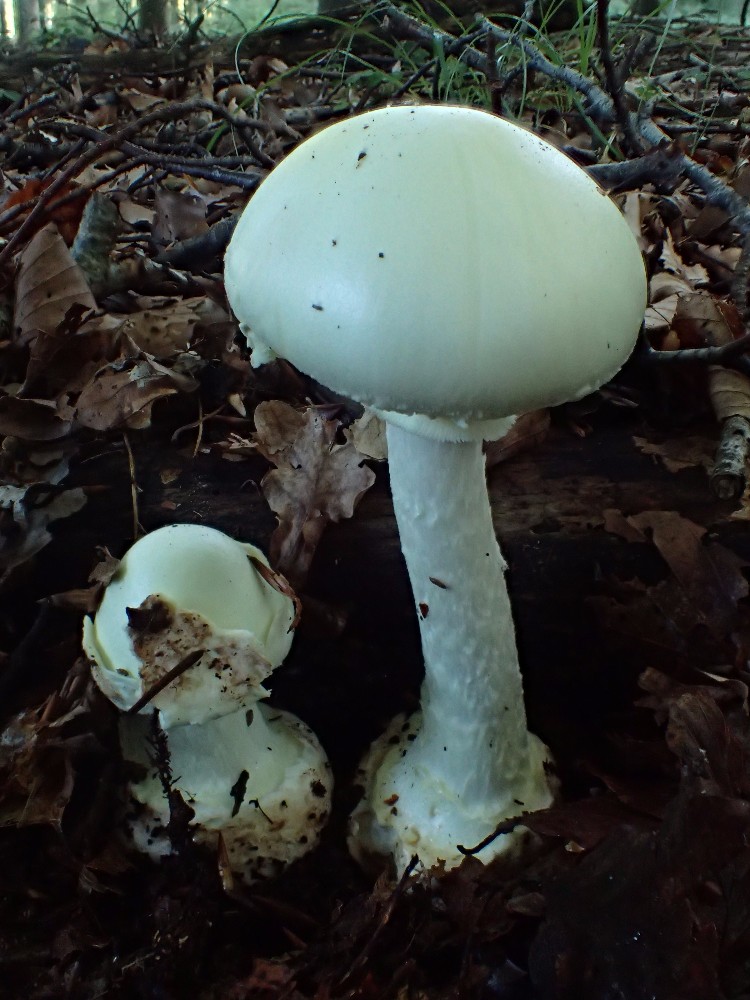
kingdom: Fungi
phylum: Basidiomycota
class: Agaricomycetes
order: Agaricales
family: Amanitaceae
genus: Amanita
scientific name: Amanita citrina
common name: False death-cap
